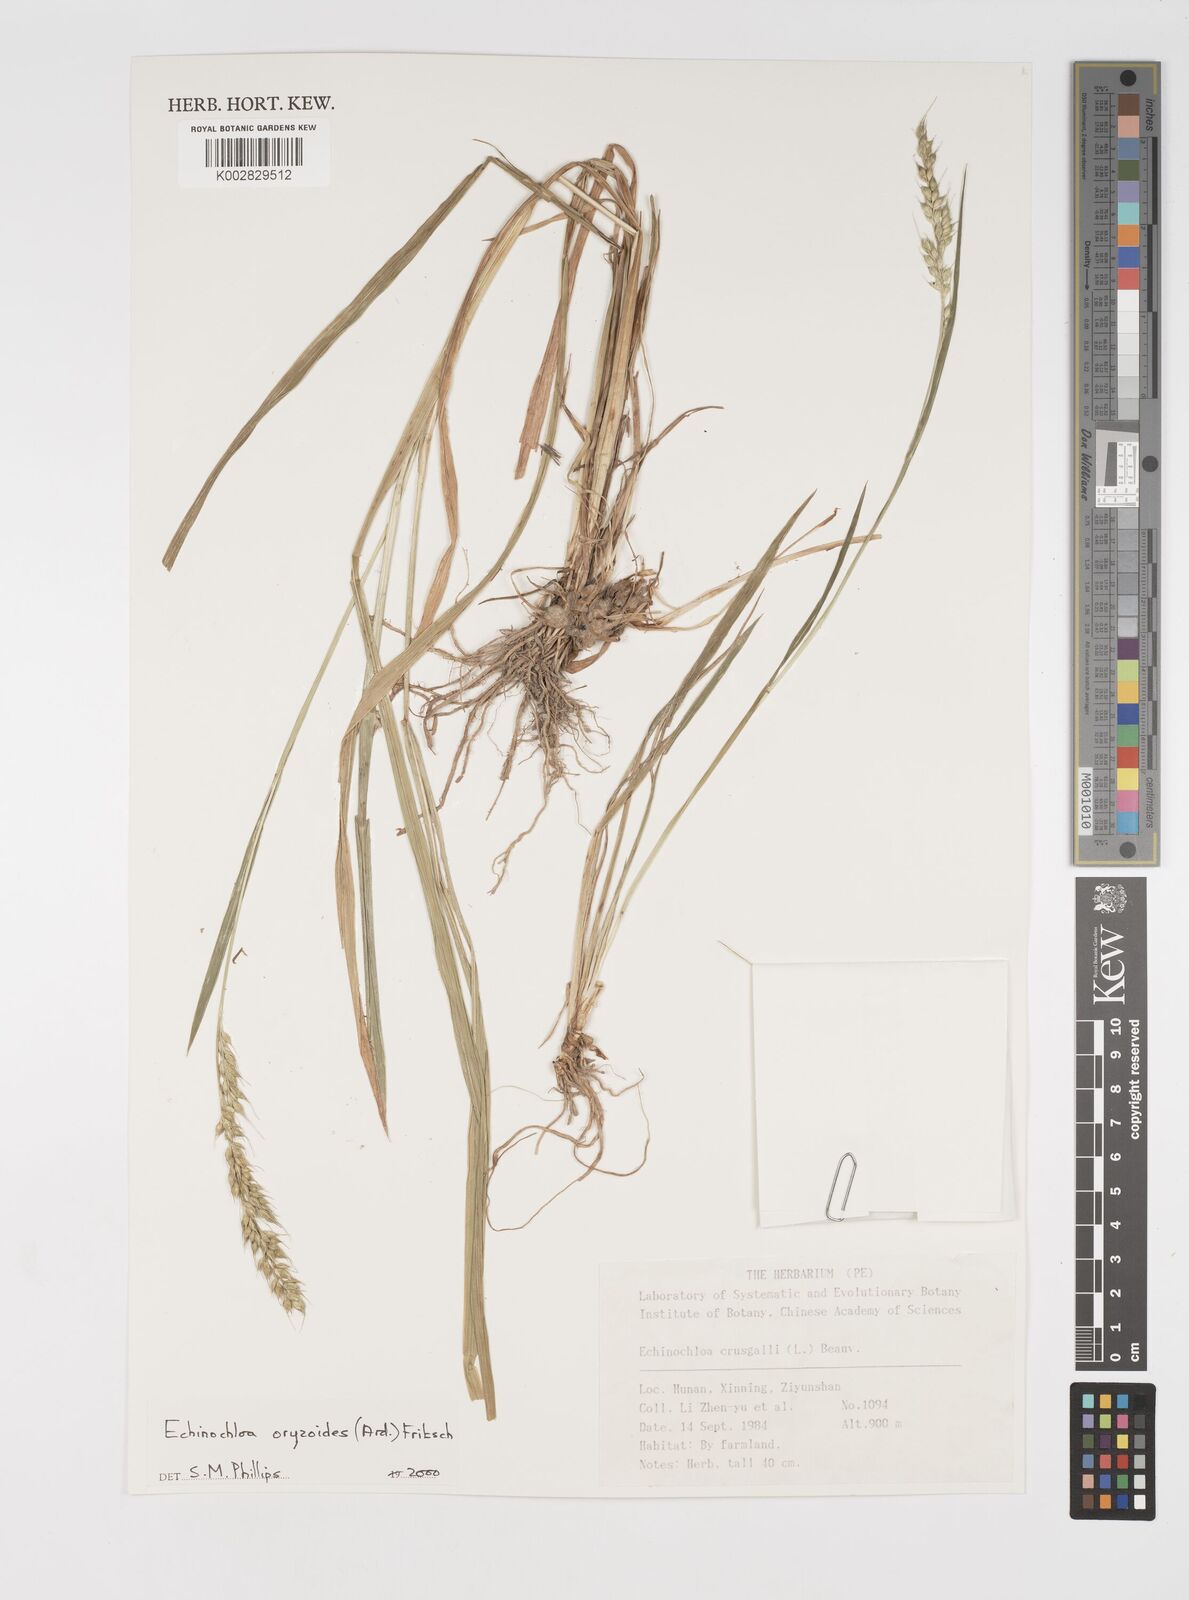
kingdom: Plantae
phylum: Tracheophyta
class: Liliopsida
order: Poales
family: Poaceae
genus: Echinochloa
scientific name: Echinochloa oryzoides
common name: Early water grass
